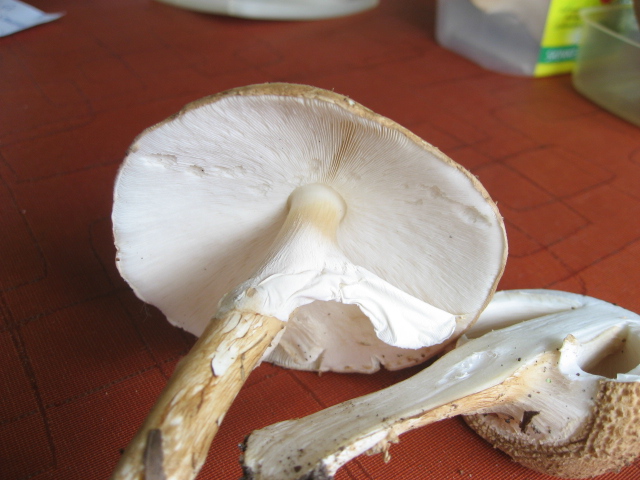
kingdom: Fungi
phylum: Basidiomycota
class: Agaricomycetes
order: Agaricales
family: Agaricaceae
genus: Echinoderma
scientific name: Echinoderma asperum
